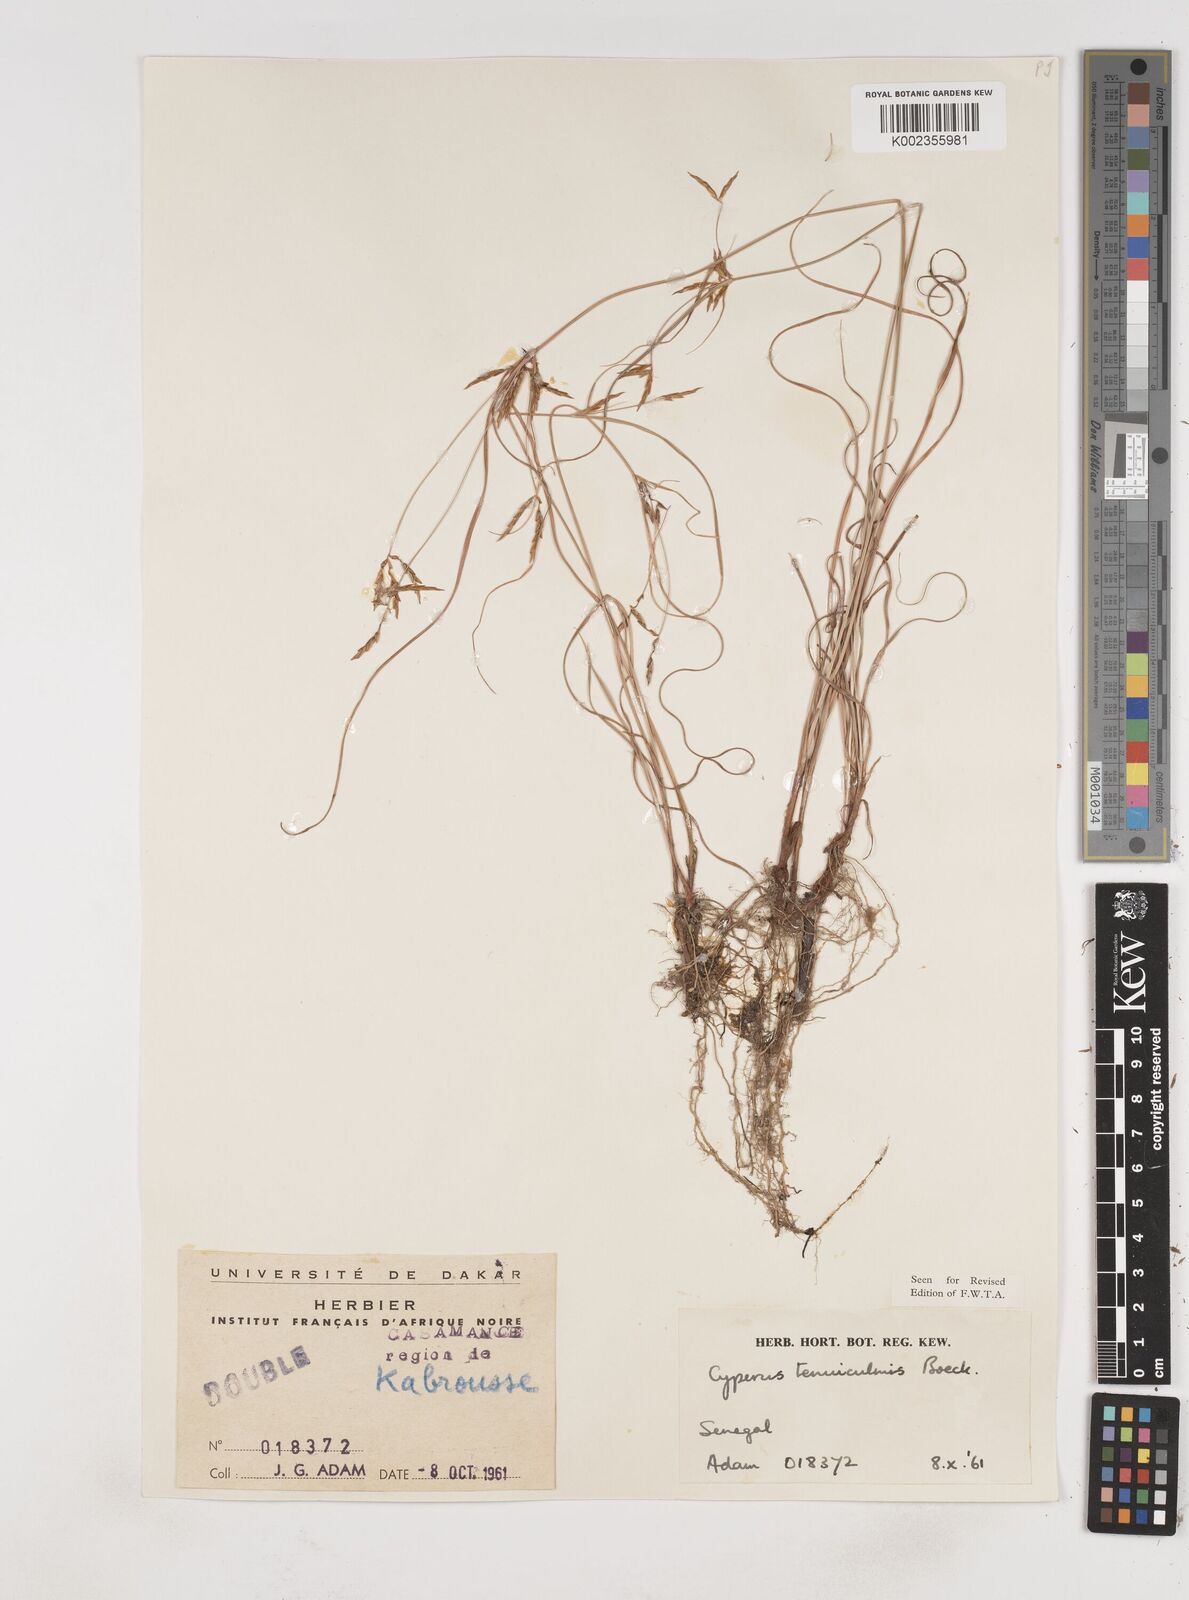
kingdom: Plantae
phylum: Tracheophyta
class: Liliopsida
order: Poales
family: Cyperaceae
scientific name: Cyperaceae
